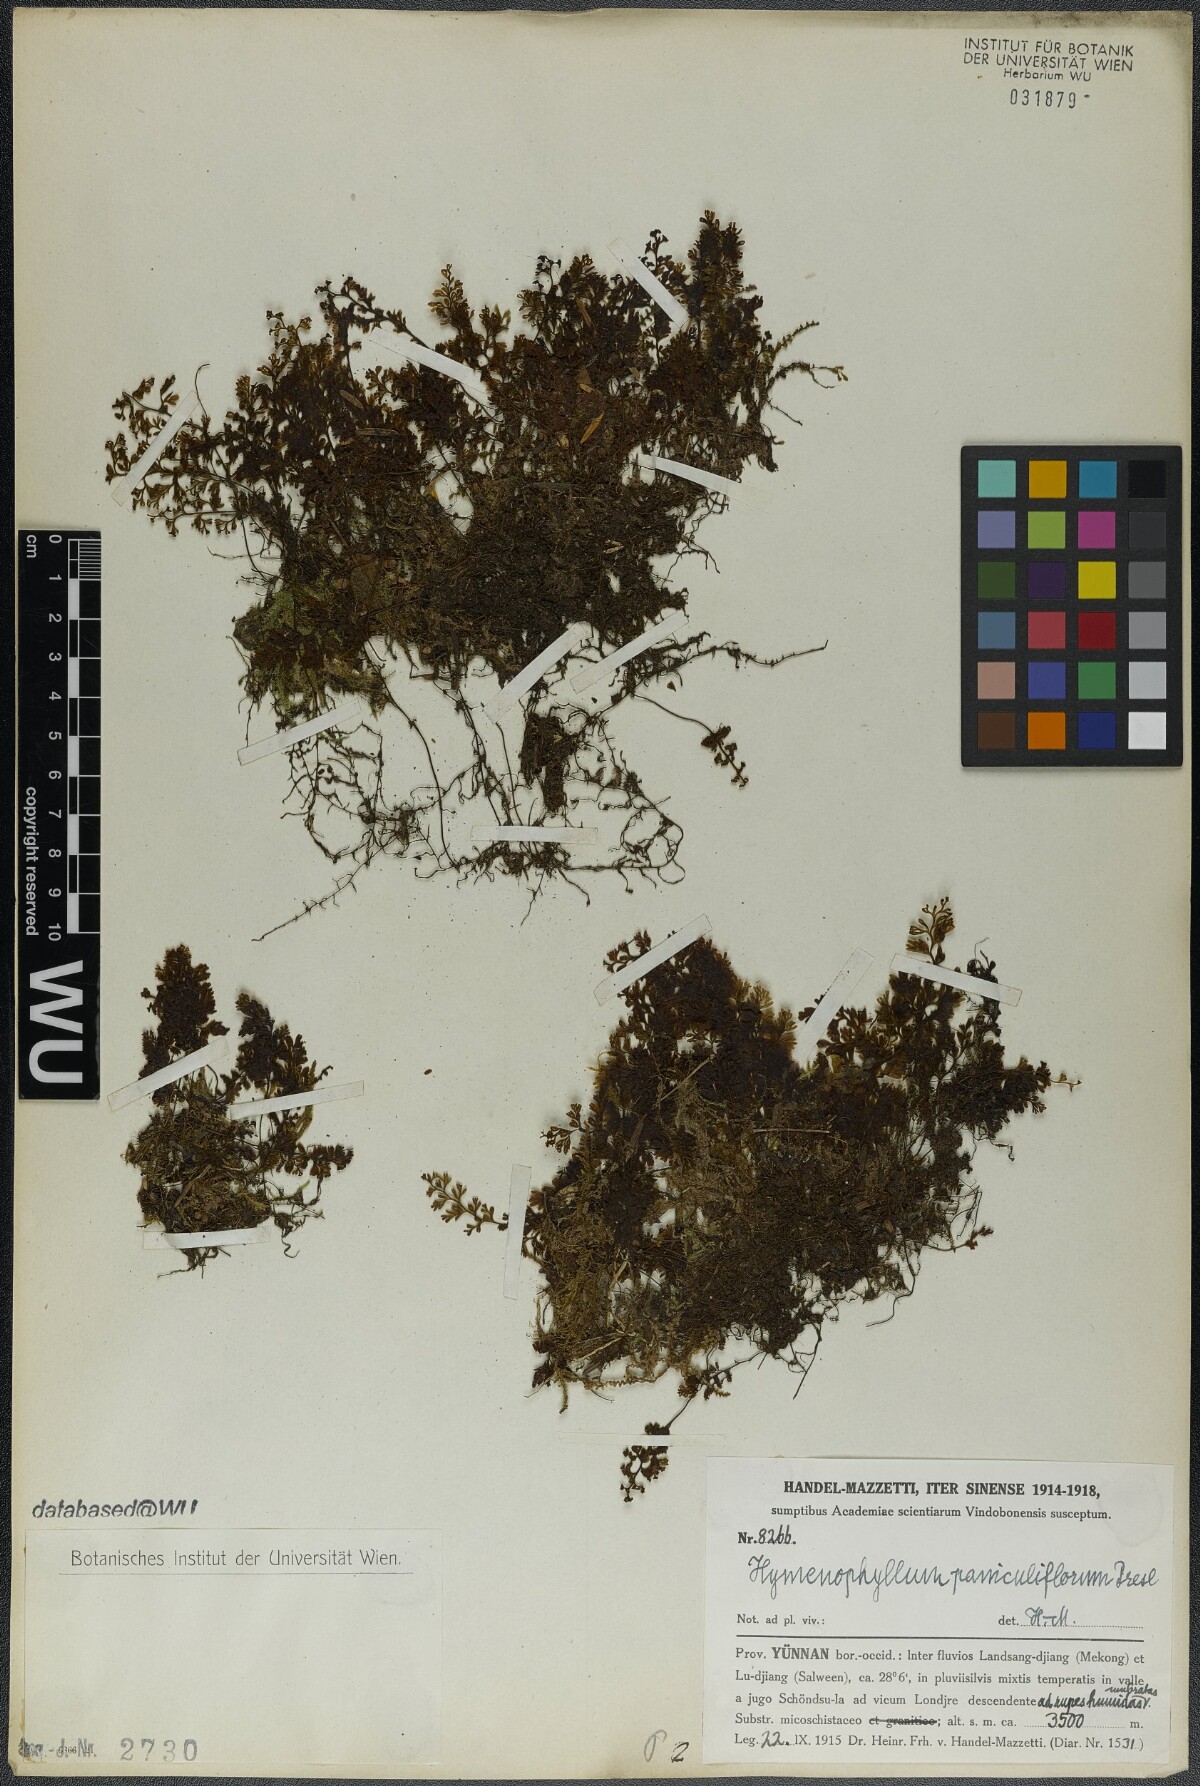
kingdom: Plantae
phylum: Tracheophyta
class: Polypodiopsida
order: Hymenophyllales
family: Hymenophyllaceae
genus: Hymenophyllum
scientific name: Hymenophyllum paniculiflorum
